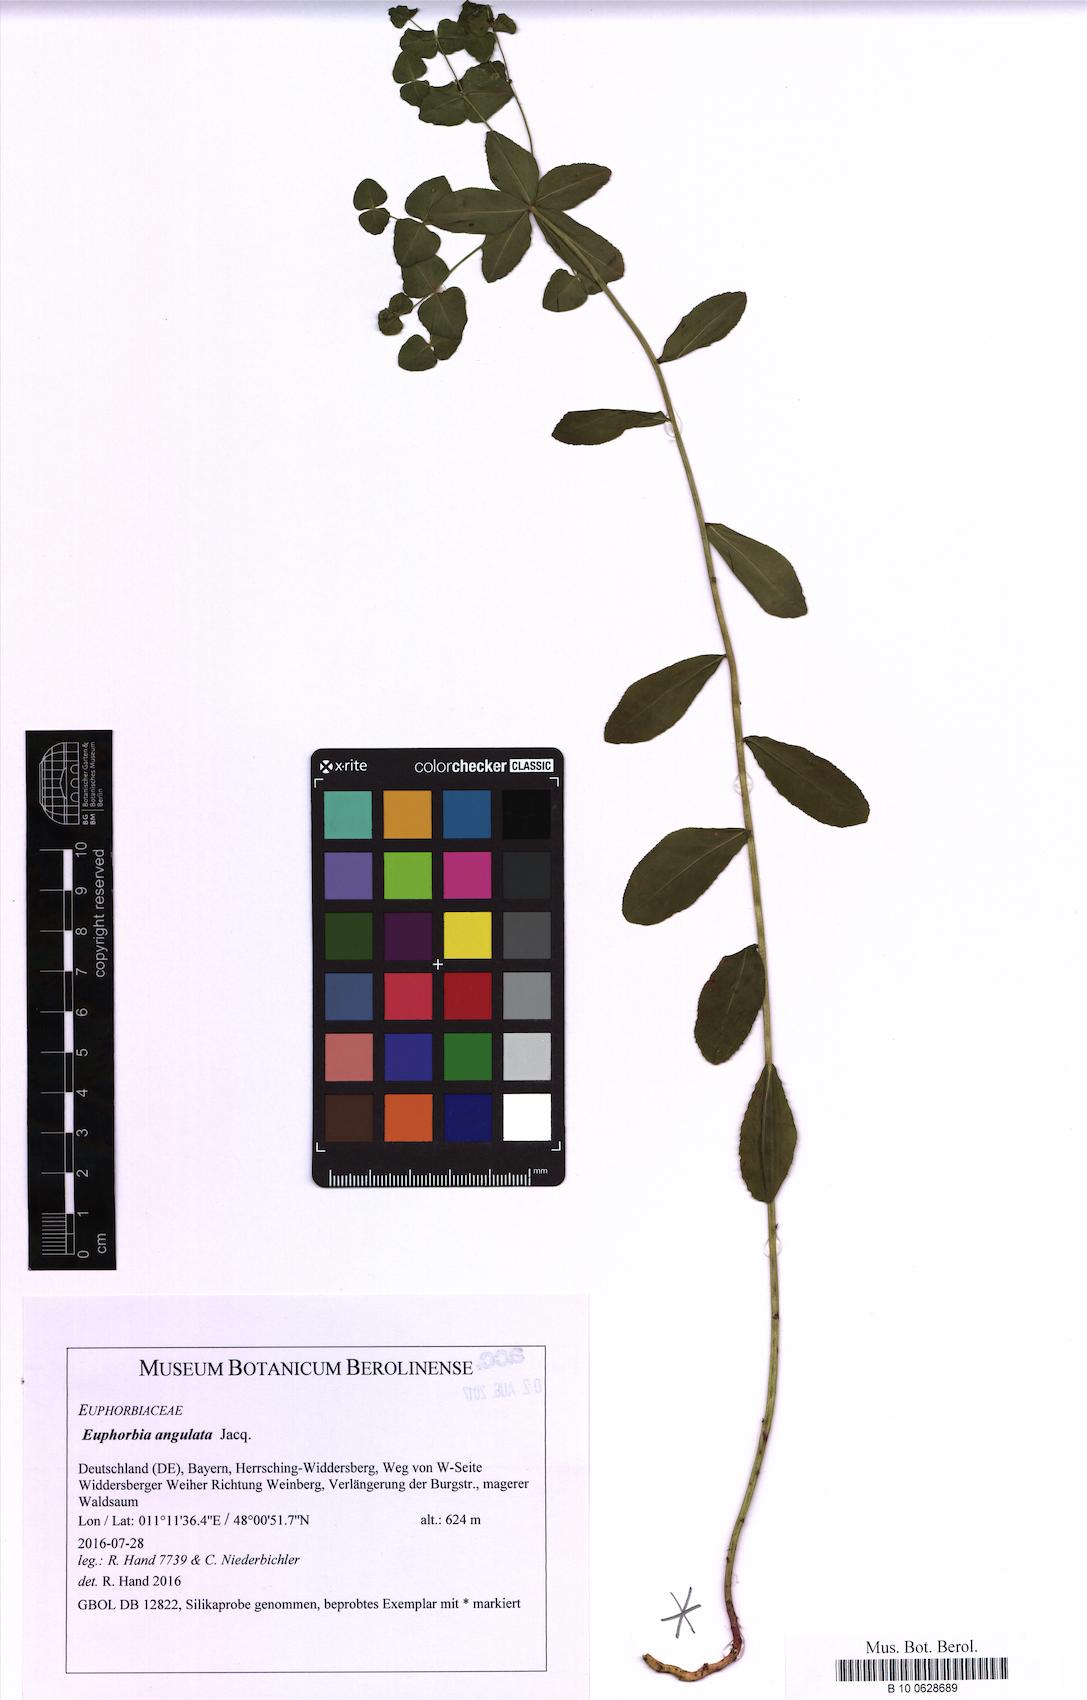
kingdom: Plantae
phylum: Tracheophyta
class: Magnoliopsida
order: Malpighiales
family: Euphorbiaceae
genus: Euphorbia
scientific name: Euphorbia angulata
